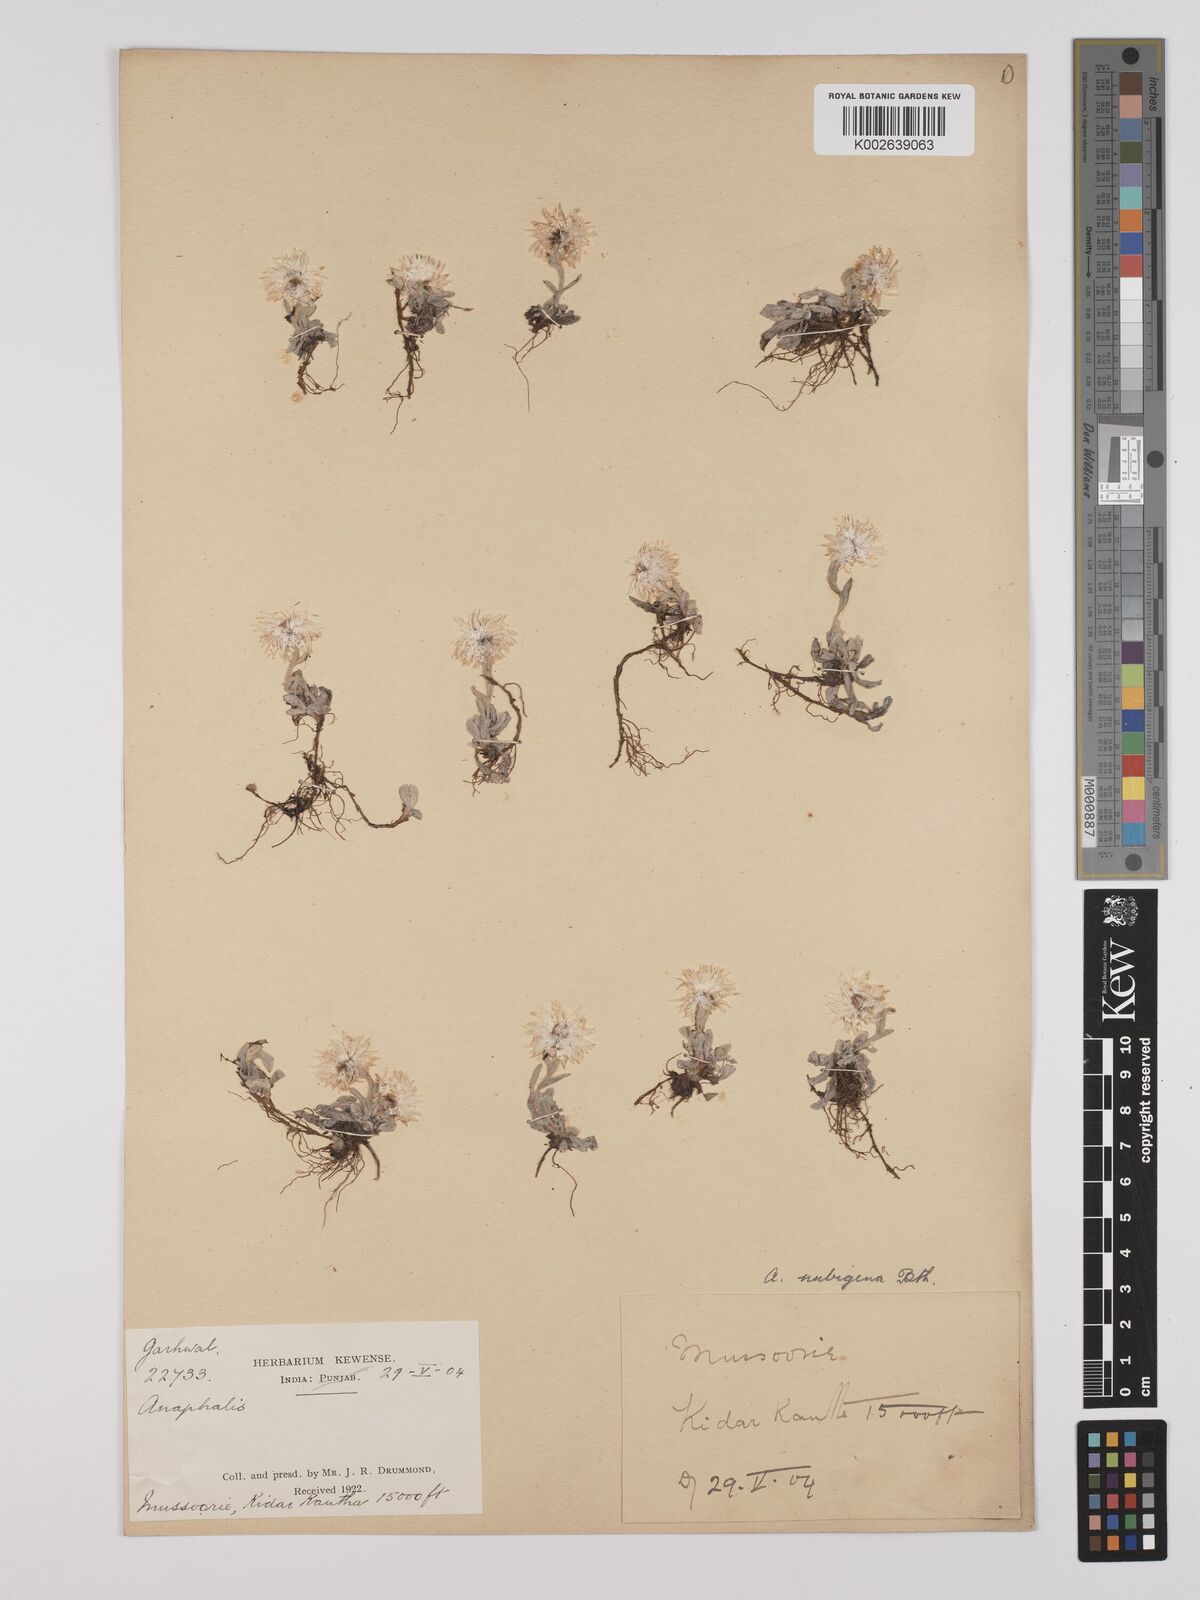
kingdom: Plantae
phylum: Tracheophyta
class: Magnoliopsida
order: Asterales
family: Asteraceae
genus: Anaphalis
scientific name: Anaphalis nepalensis
